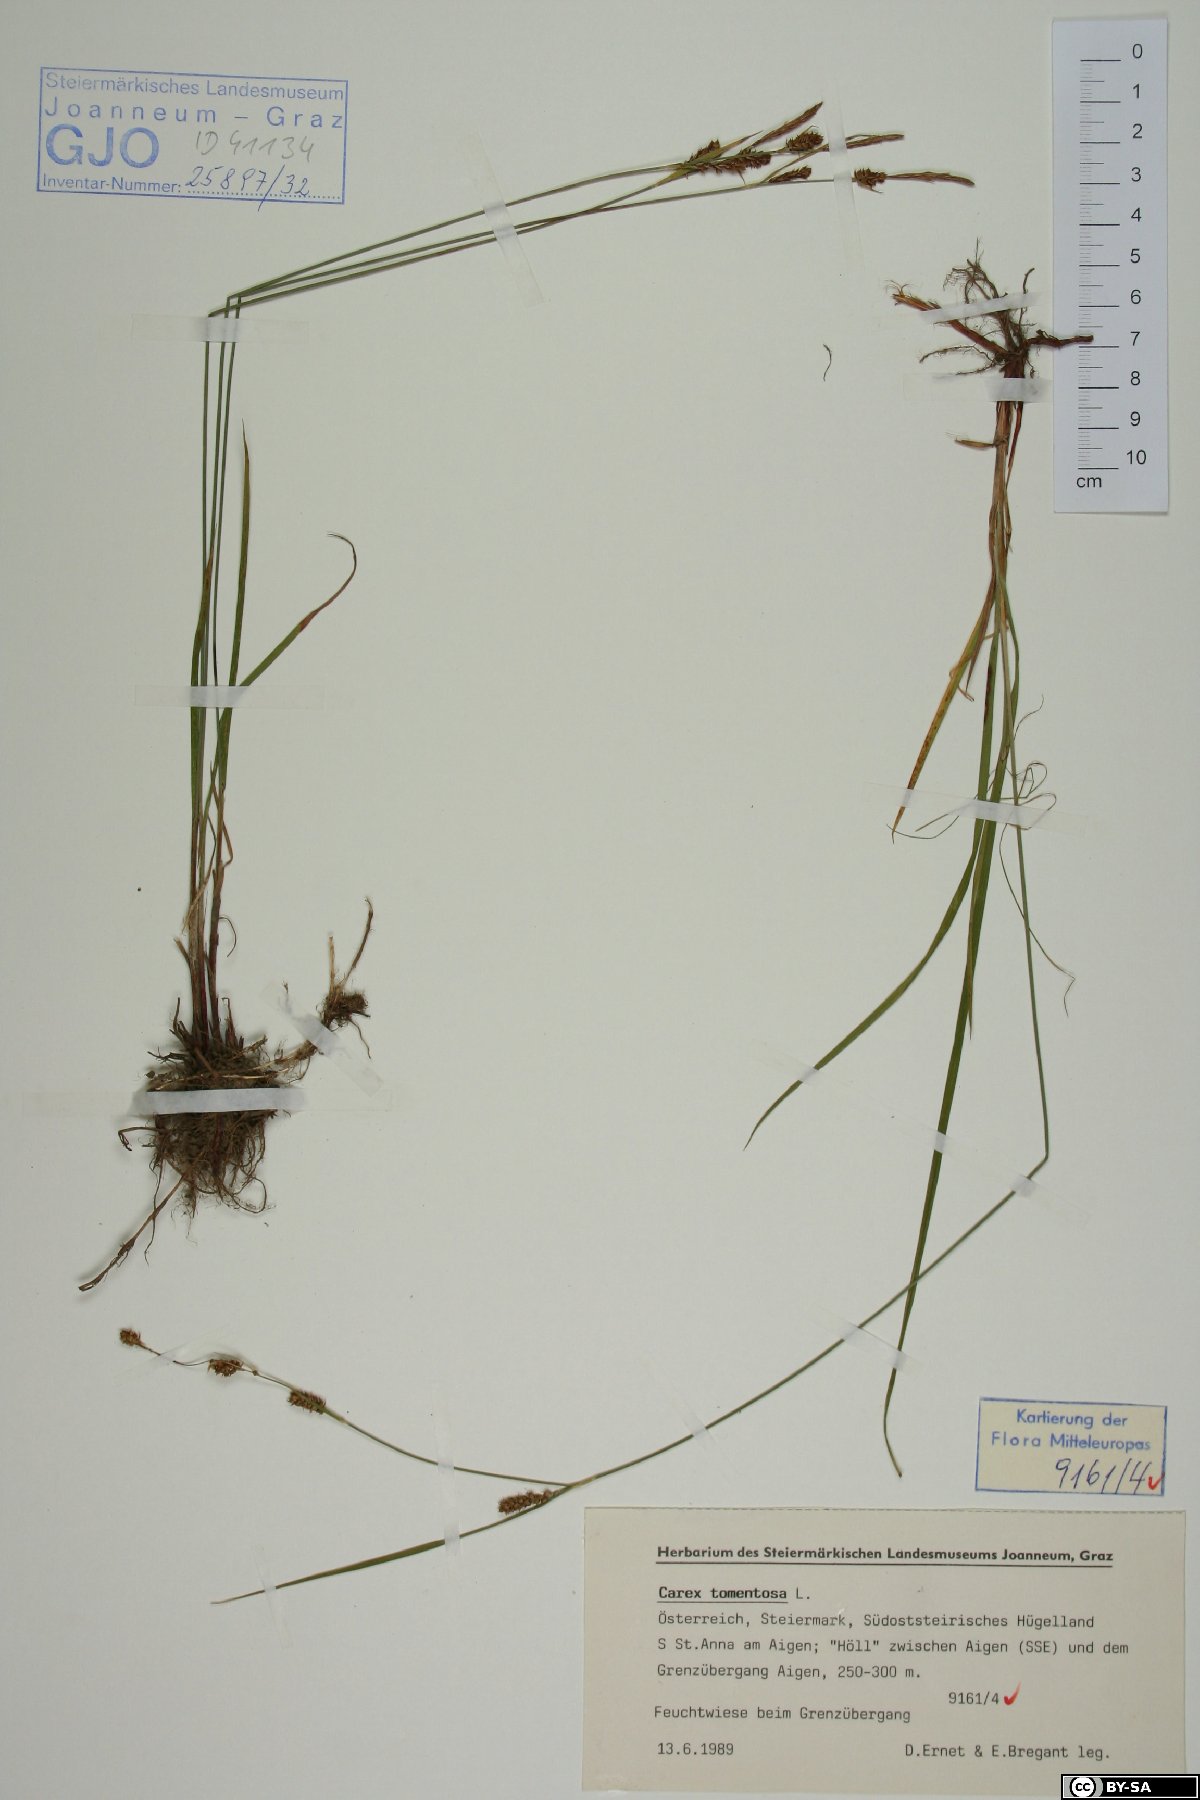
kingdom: Plantae
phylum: Tracheophyta
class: Liliopsida
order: Poales
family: Cyperaceae
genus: Carex
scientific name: Carex tomentosa
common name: Downy-fruited sedge
